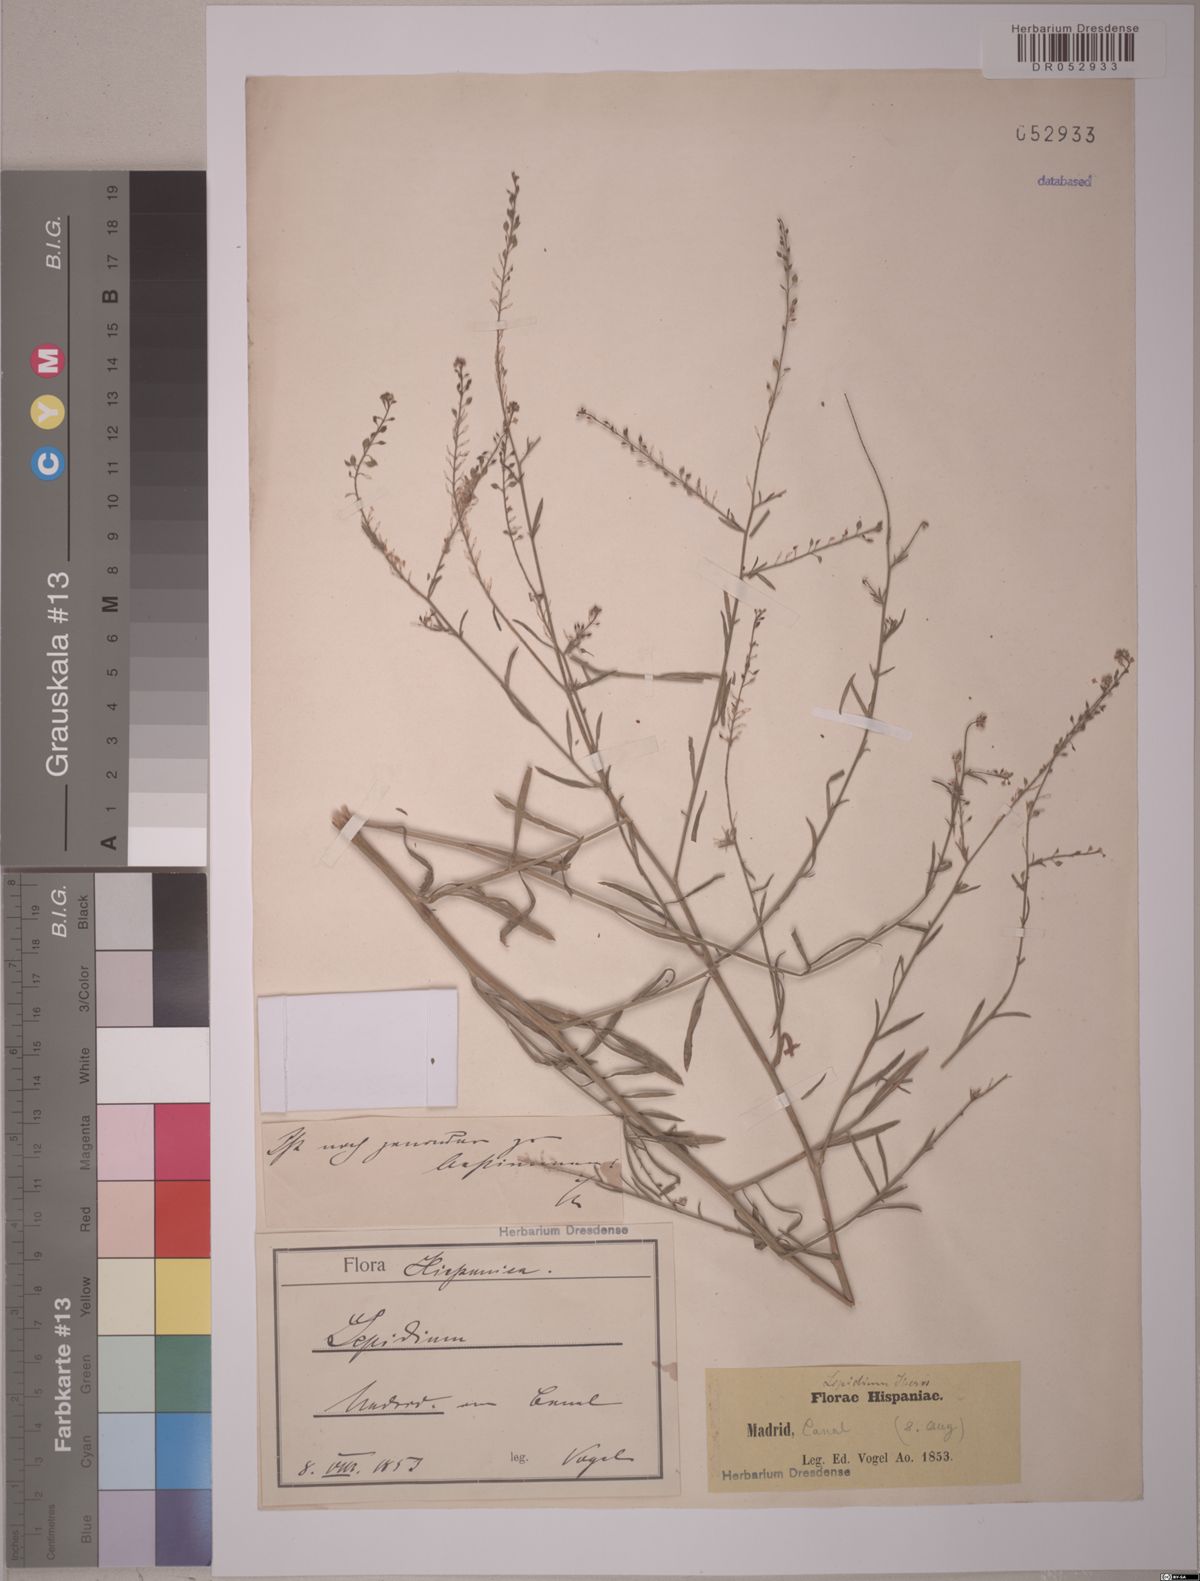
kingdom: Plantae
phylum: Tracheophyta
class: Magnoliopsida
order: Brassicales
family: Brassicaceae
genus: Lepidium
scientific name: Lepidium graminifolium
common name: Tall pepperwort
